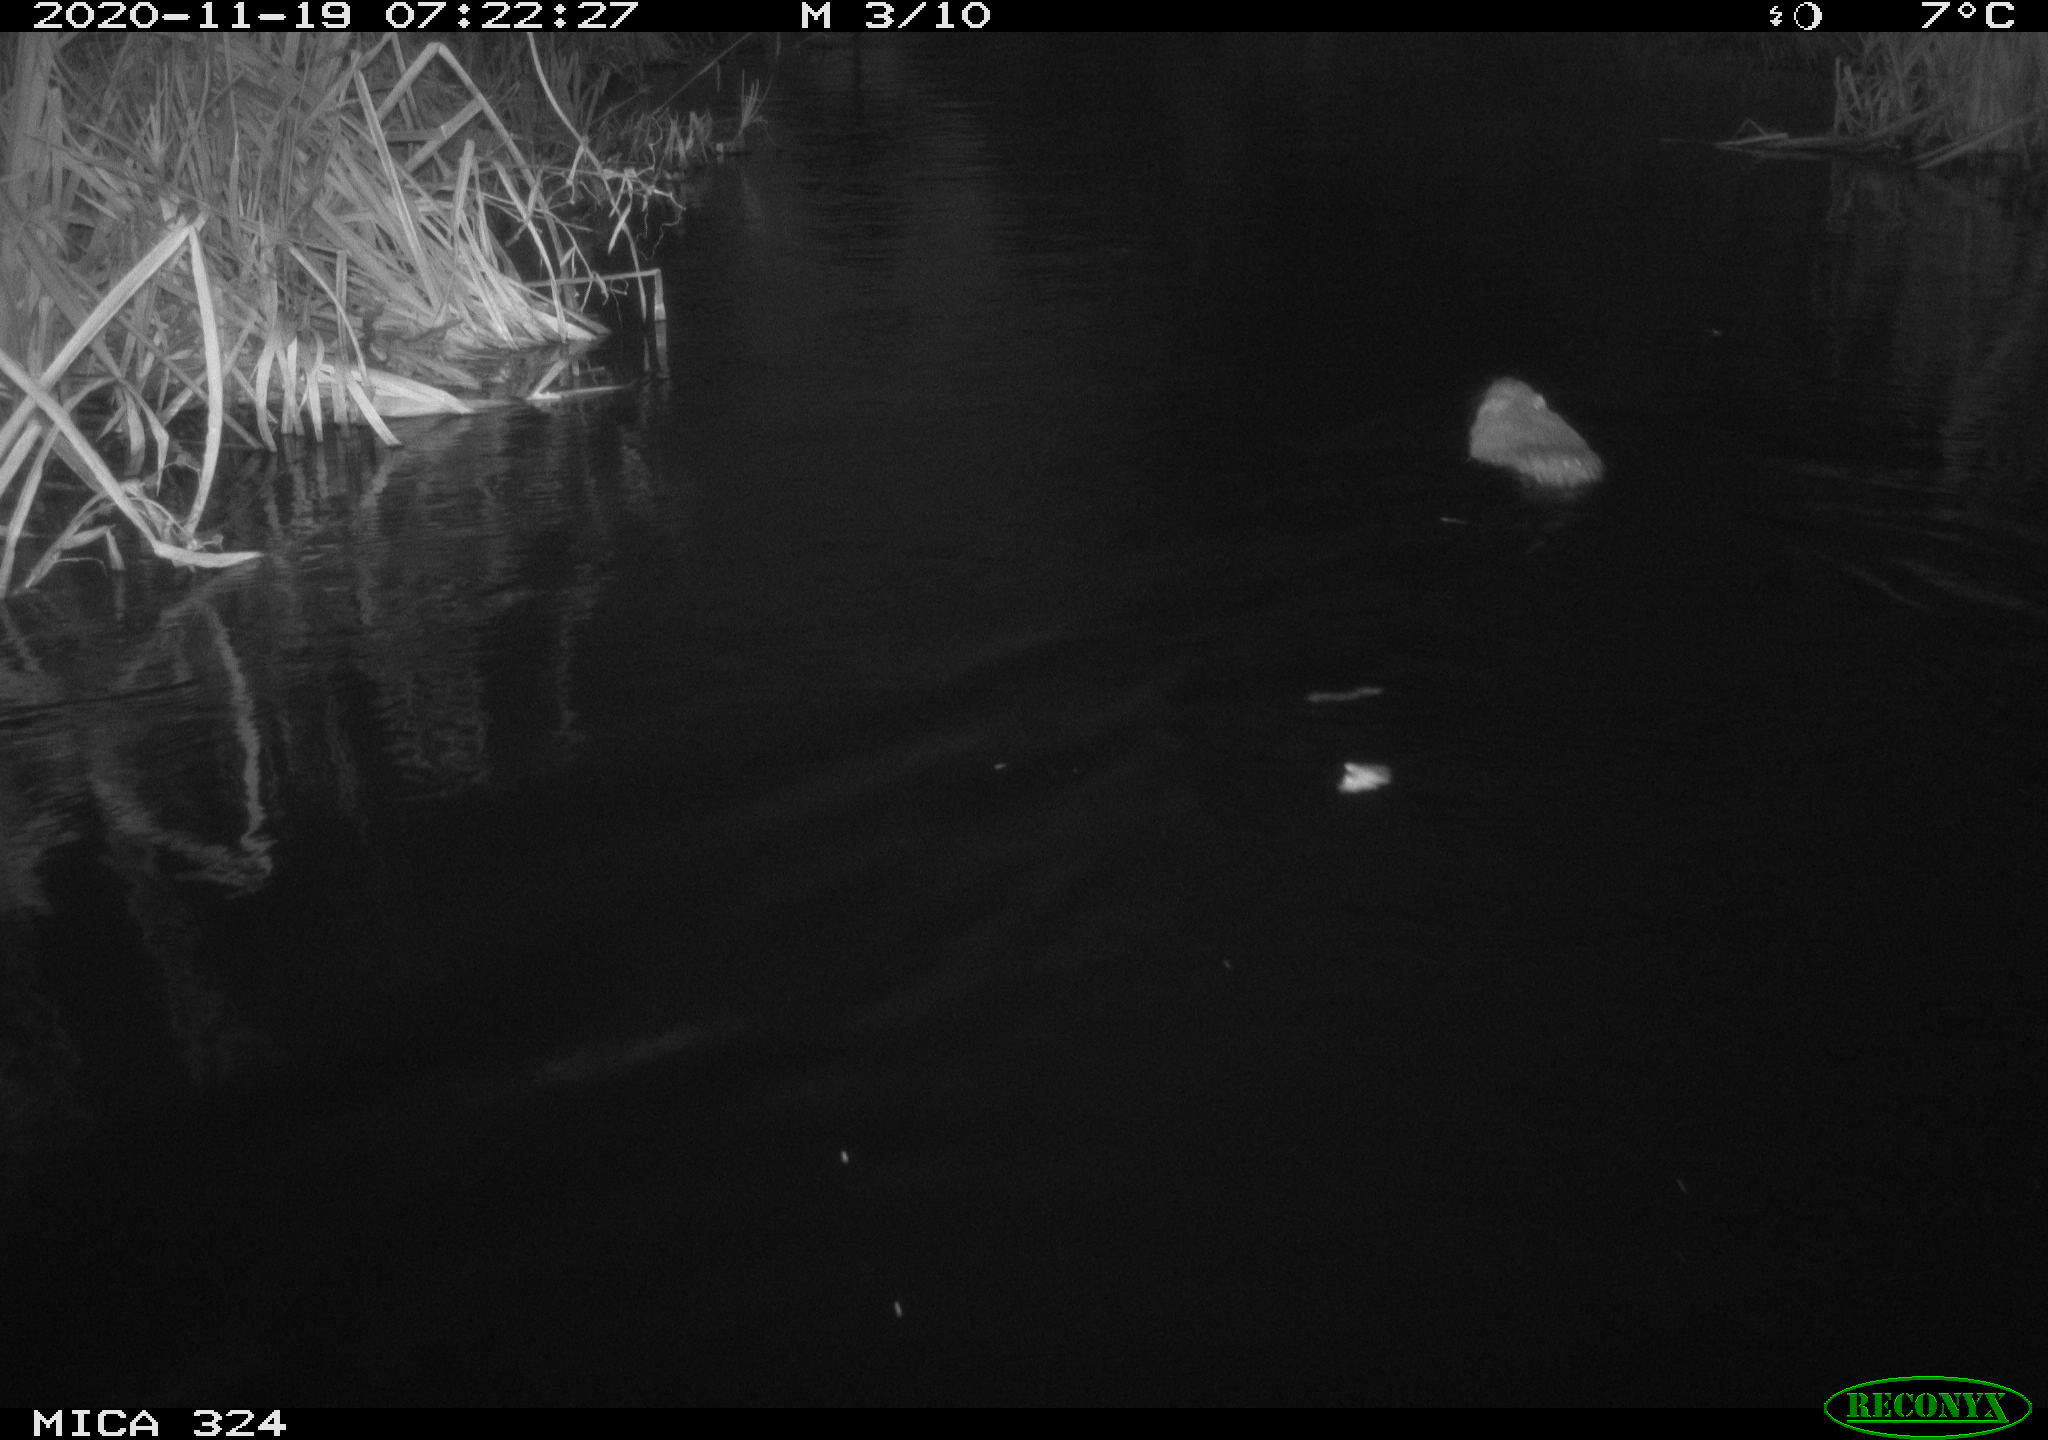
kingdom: Animalia
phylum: Chordata
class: Mammalia
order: Rodentia
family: Myocastoridae
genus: Myocastor
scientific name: Myocastor coypus
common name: Coypu
